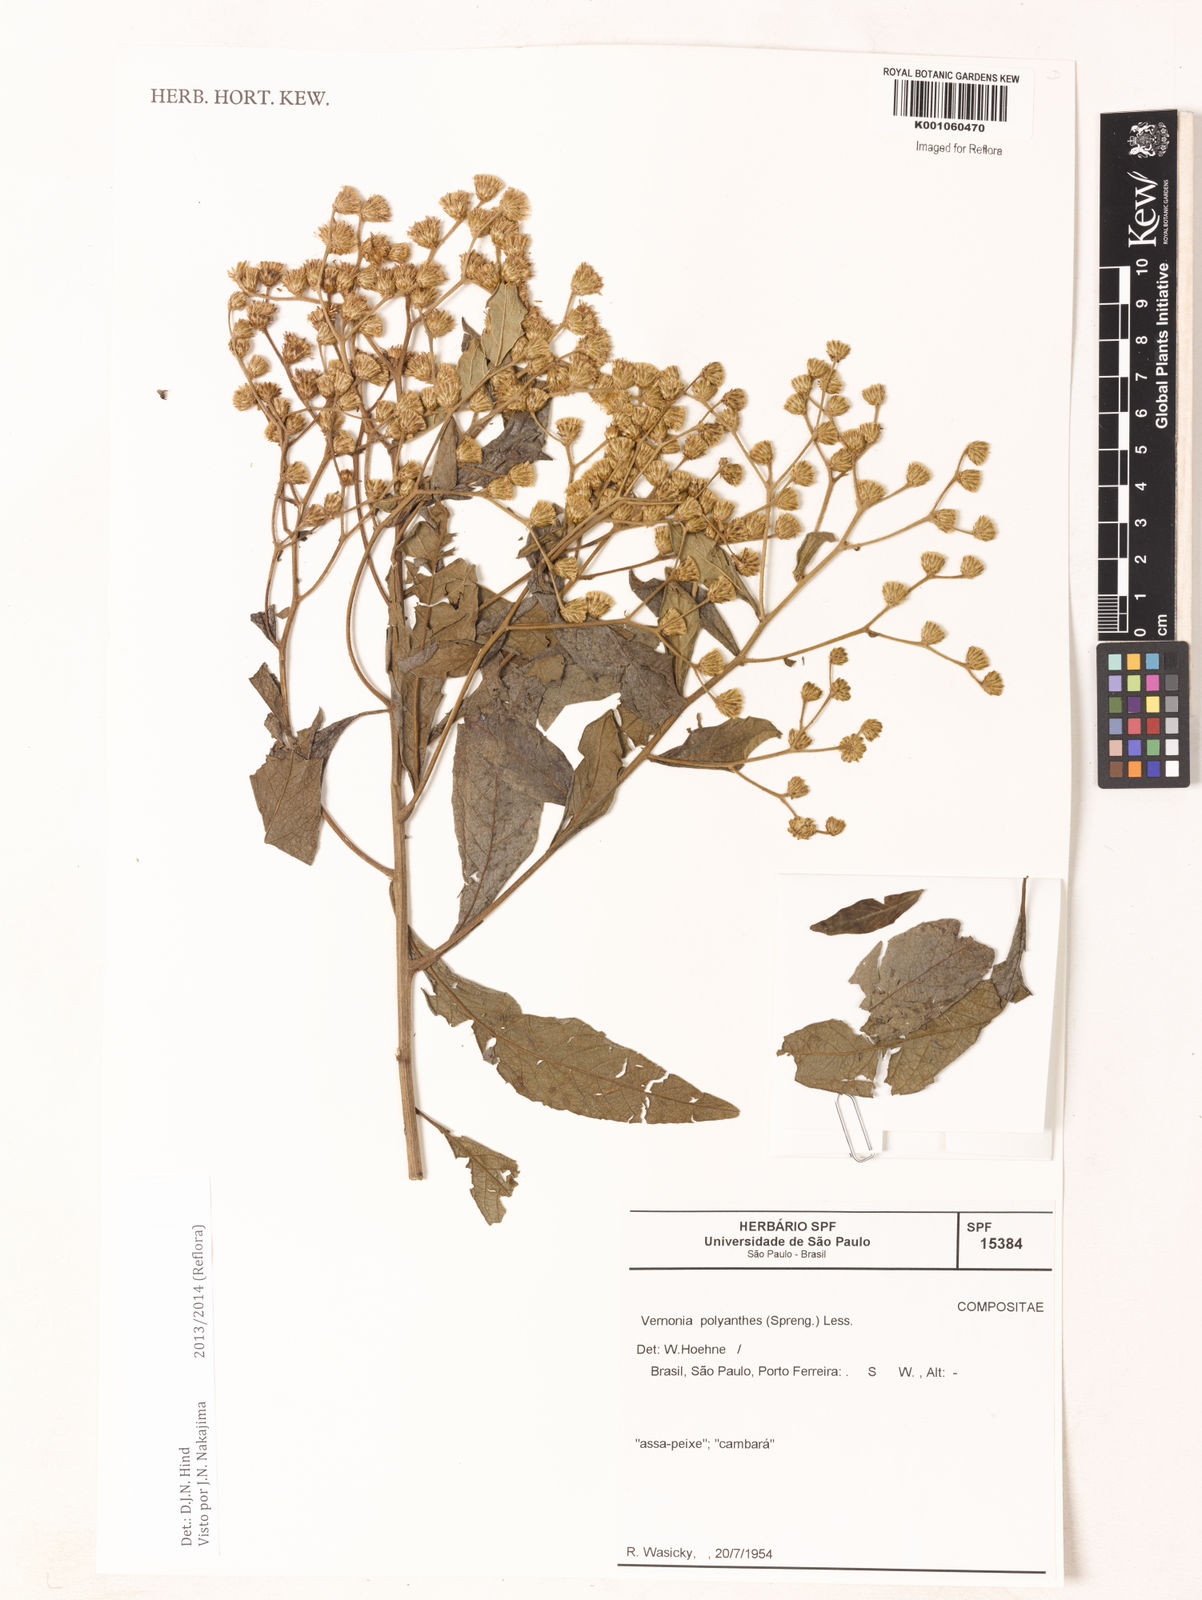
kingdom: Plantae
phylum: Tracheophyta
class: Magnoliopsida
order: Asterales
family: Asteraceae
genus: Vernonanthura
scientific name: Vernonanthura polyanthes
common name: Tree aster
